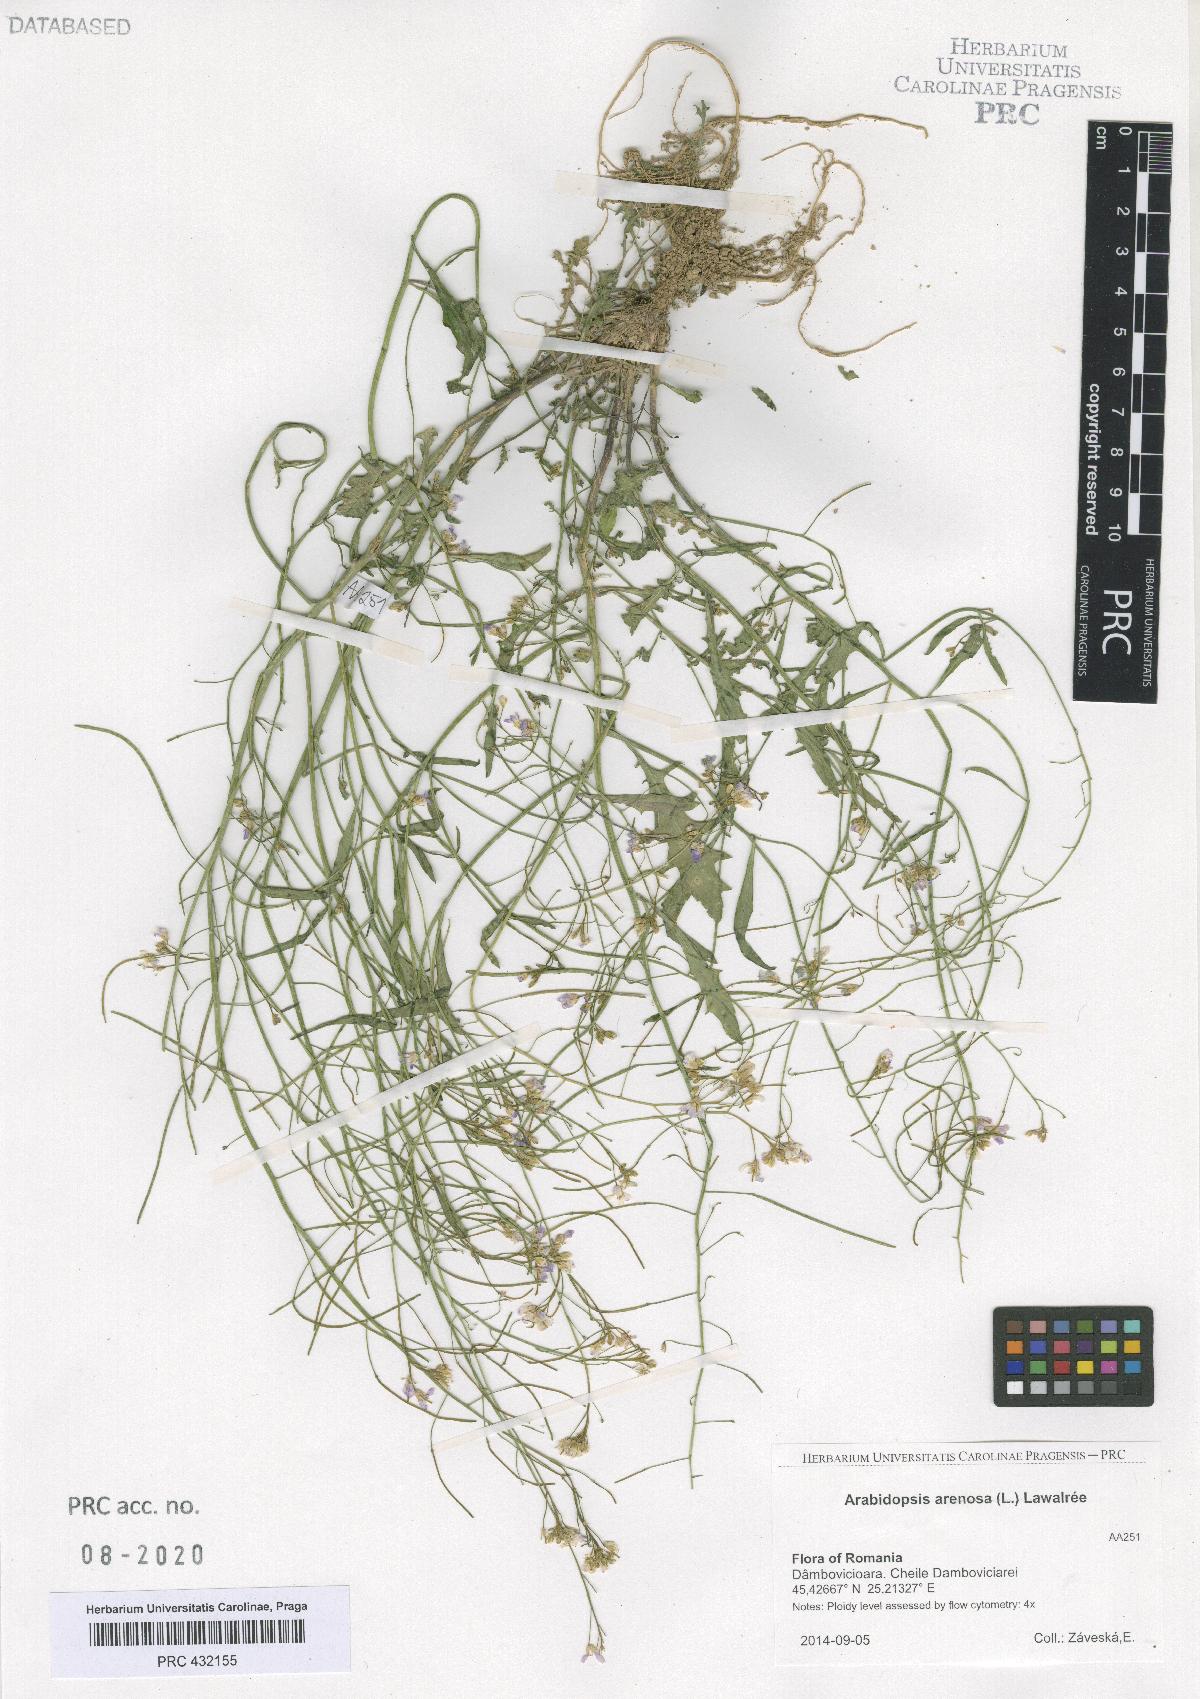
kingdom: Plantae
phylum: Tracheophyta
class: Magnoliopsida
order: Brassicales
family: Brassicaceae
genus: Arabidopsis
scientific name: Arabidopsis arenosa
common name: Sand rock-cress
